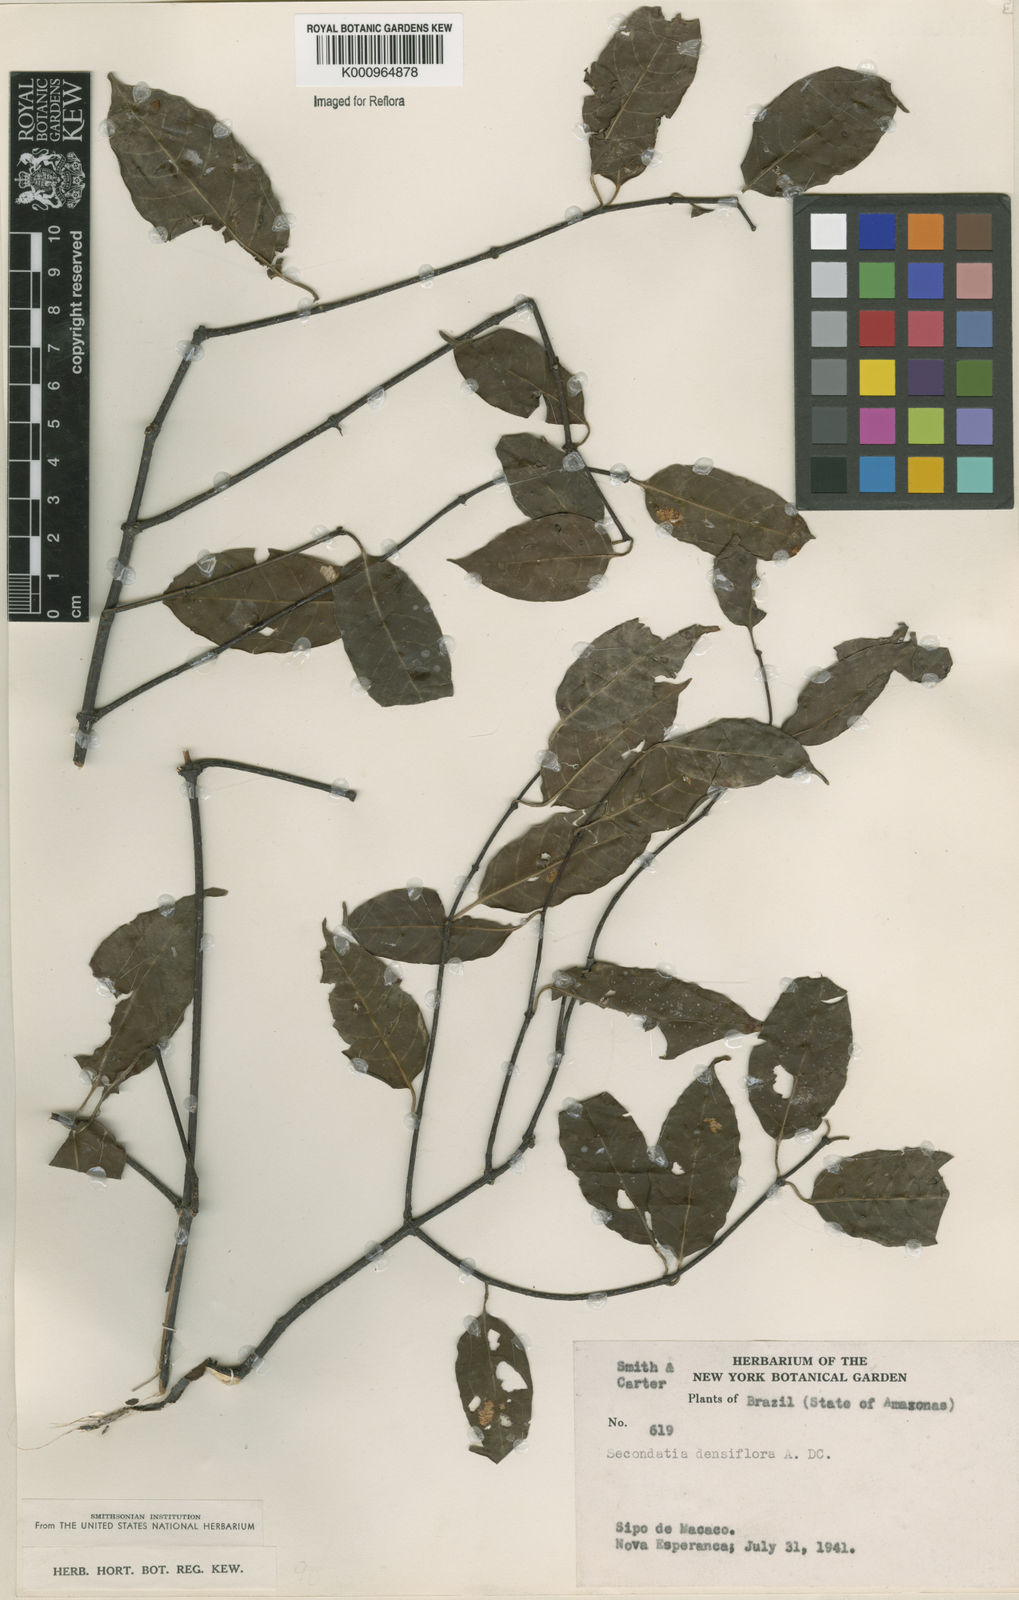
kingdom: Plantae
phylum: Tracheophyta
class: Magnoliopsida
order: Gentianales
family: Apocynaceae
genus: Secondatia
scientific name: Secondatia densiflora
